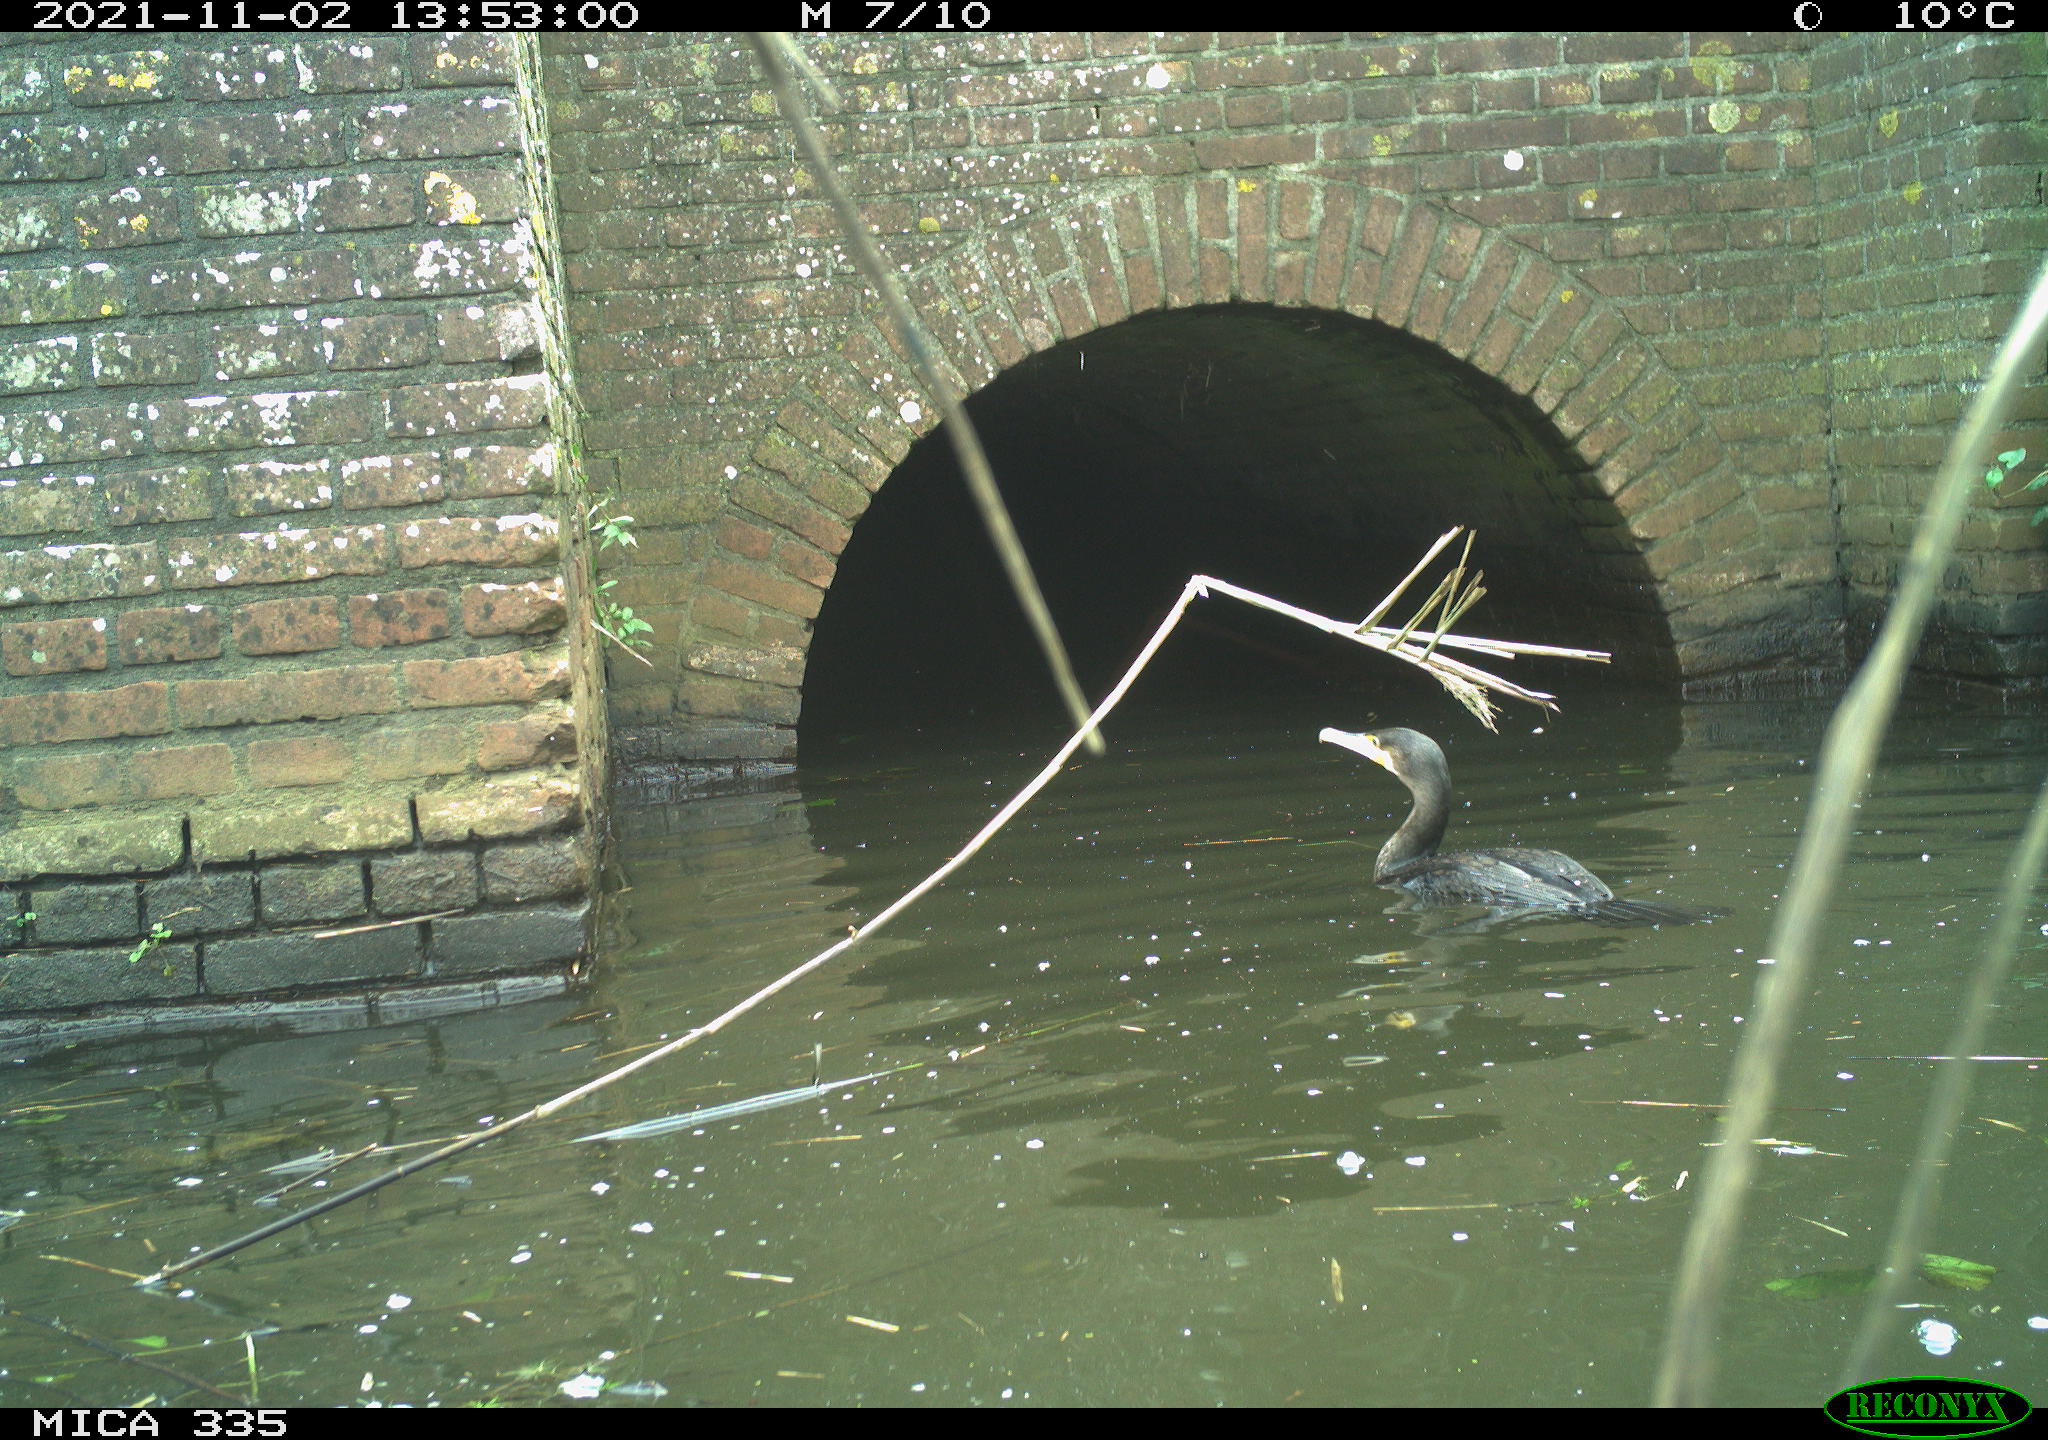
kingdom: Animalia
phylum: Chordata
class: Aves
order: Suliformes
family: Phalacrocoracidae
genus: Phalacrocorax
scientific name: Phalacrocorax carbo
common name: Great cormorant
